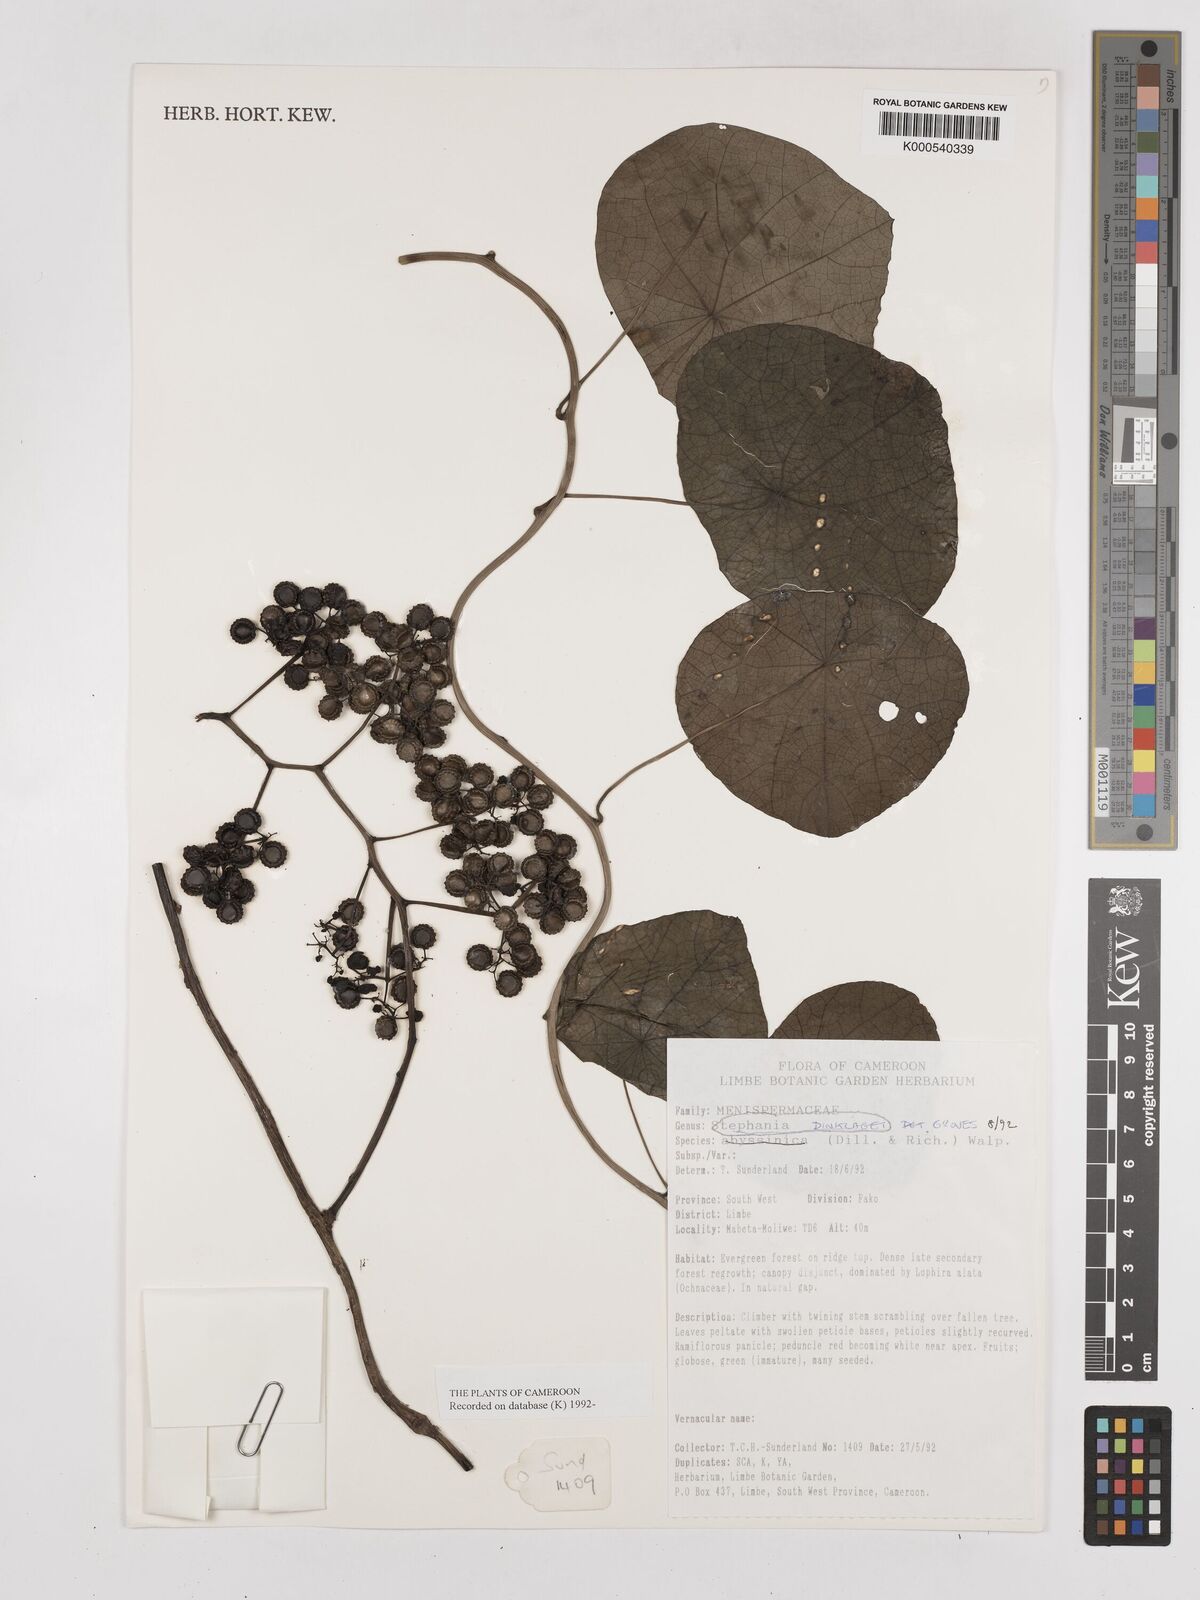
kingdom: Plantae
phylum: Tracheophyta
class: Magnoliopsida
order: Ranunculales
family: Menispermaceae
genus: Stephania
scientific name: Stephania dinklagei
